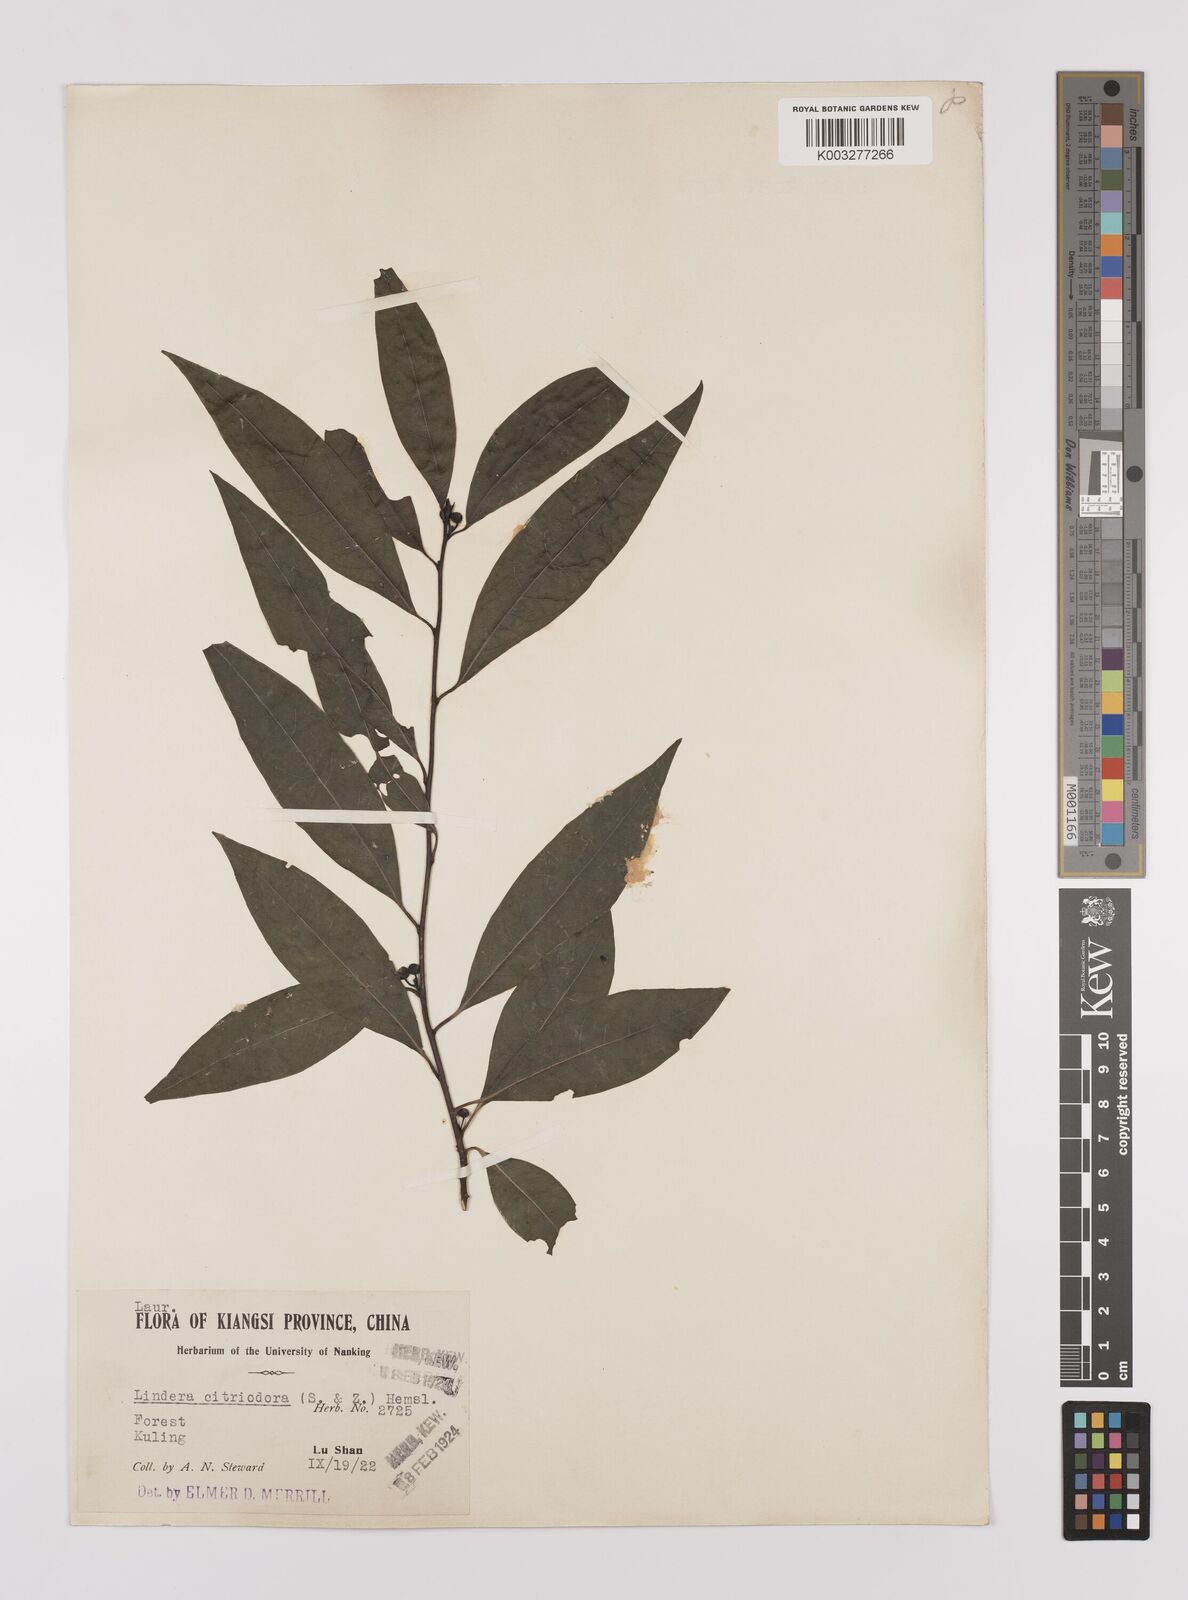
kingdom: Plantae
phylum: Tracheophyta
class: Magnoliopsida
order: Laurales
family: Lauraceae
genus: Litsea
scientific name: Litsea cubeba
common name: Mountain-pepper
